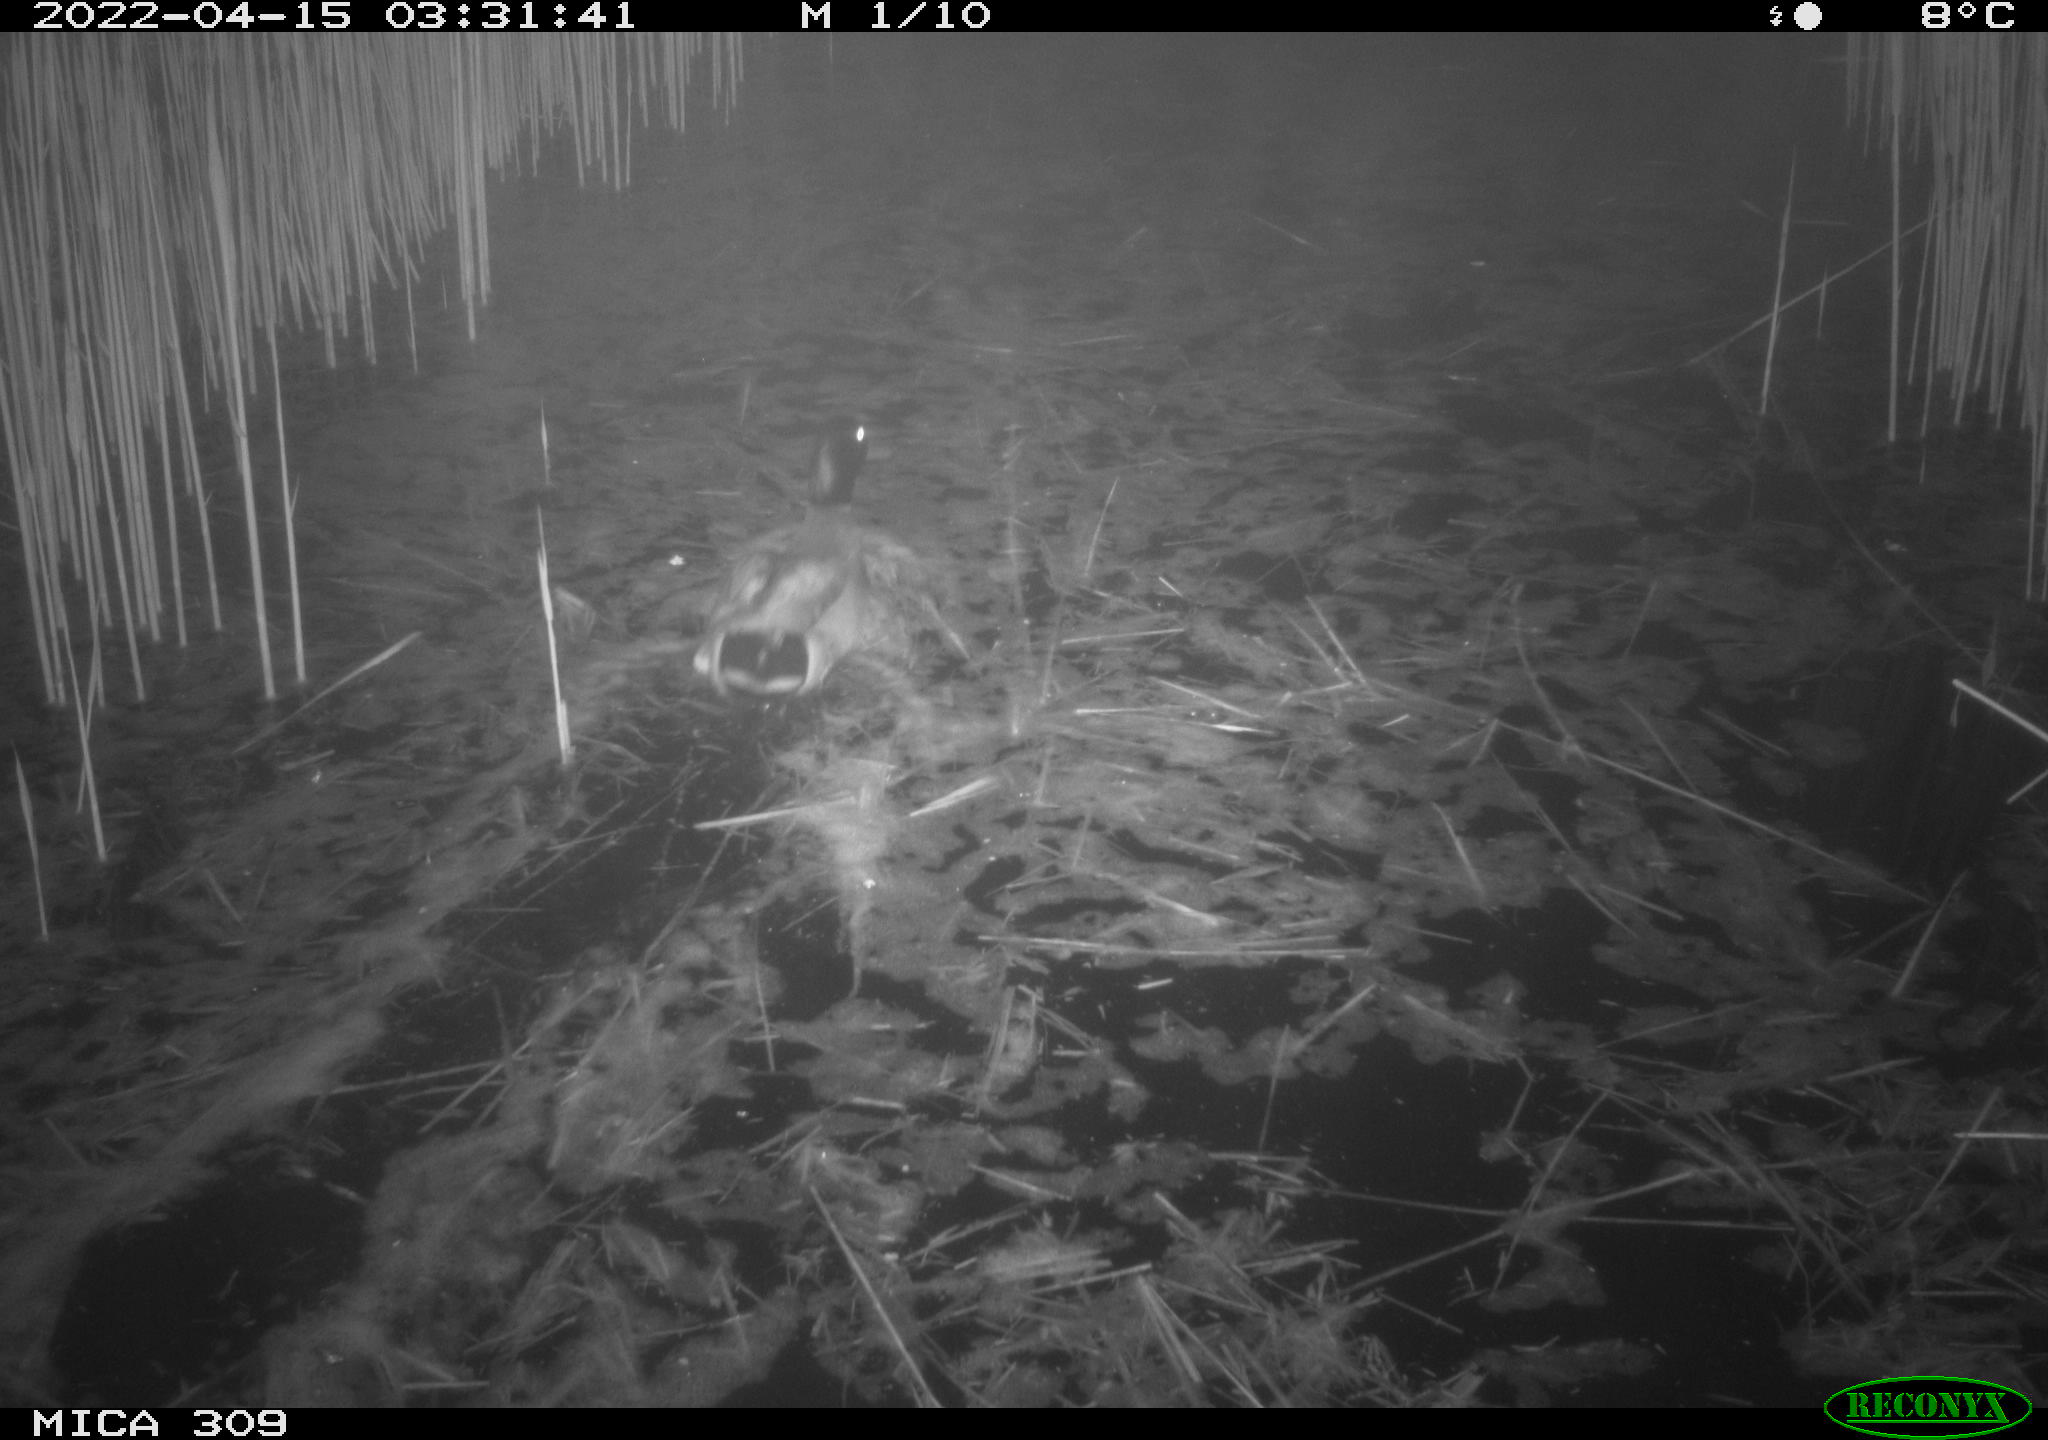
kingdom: Animalia
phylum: Chordata
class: Aves
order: Anseriformes
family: Anatidae
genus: Anas
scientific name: Anas platyrhynchos
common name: Mallard
